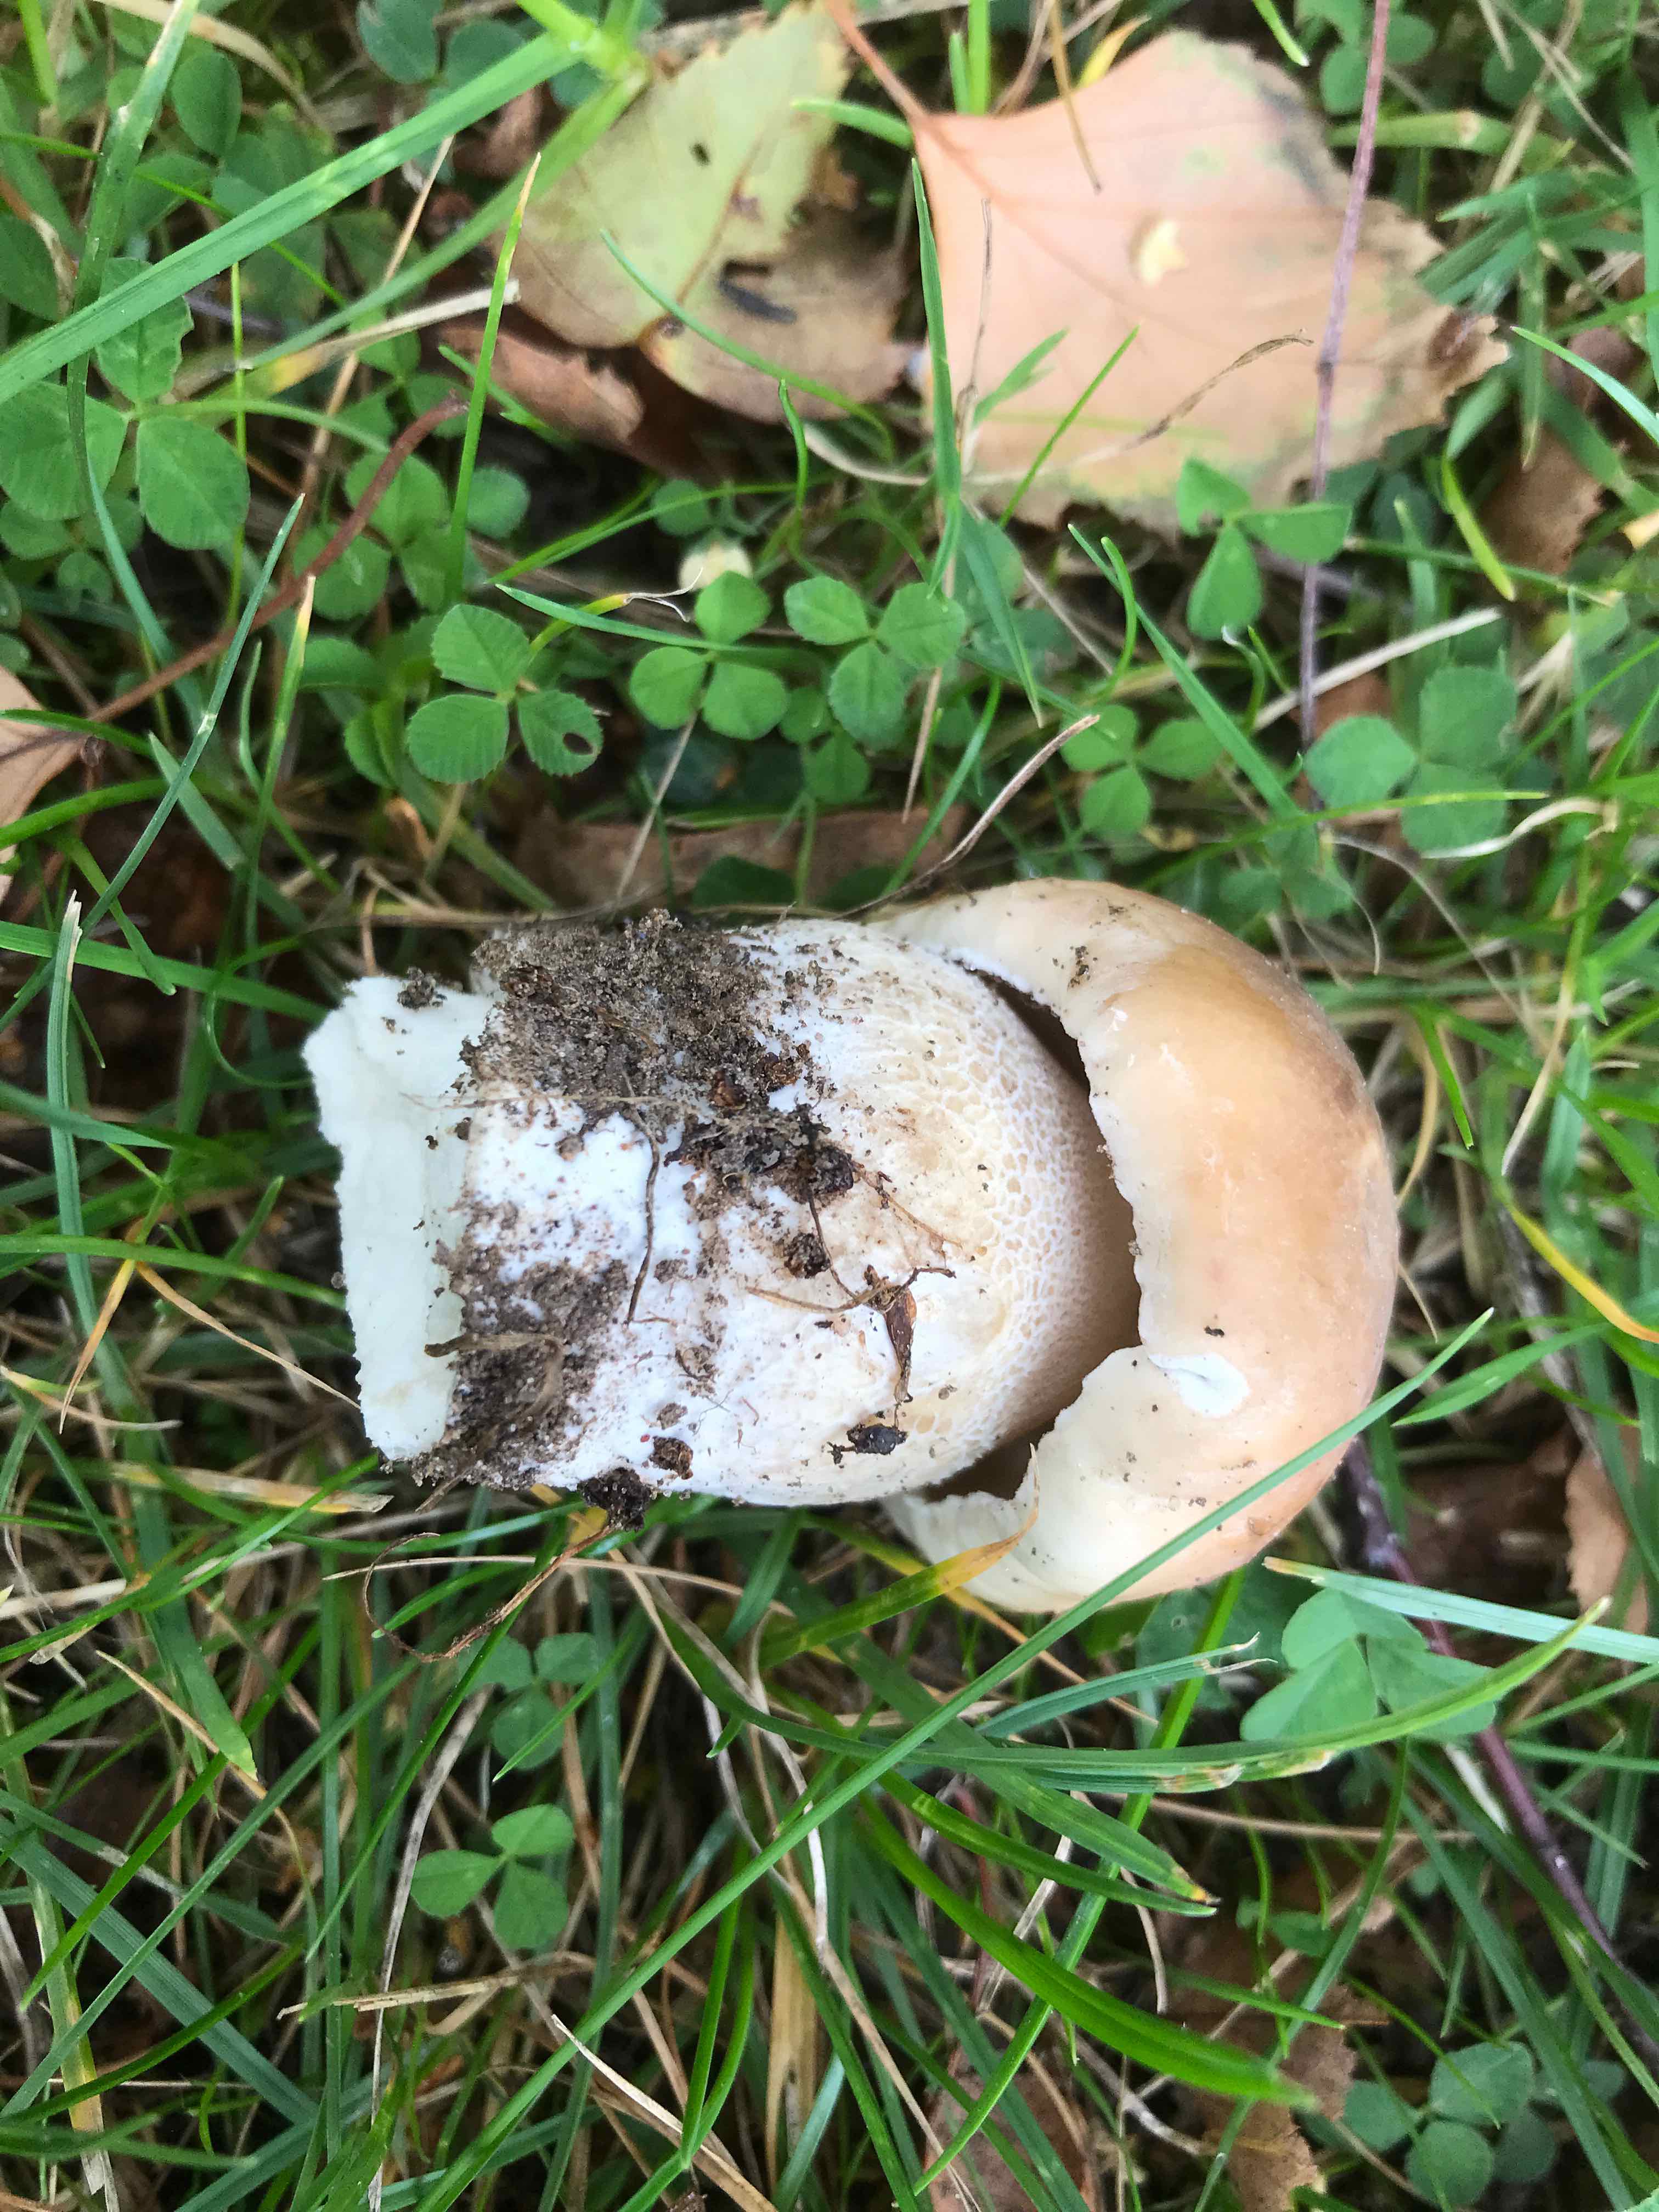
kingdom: Fungi
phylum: Basidiomycota
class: Agaricomycetes
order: Boletales
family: Boletaceae
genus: Boletus
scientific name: Boletus edulis
